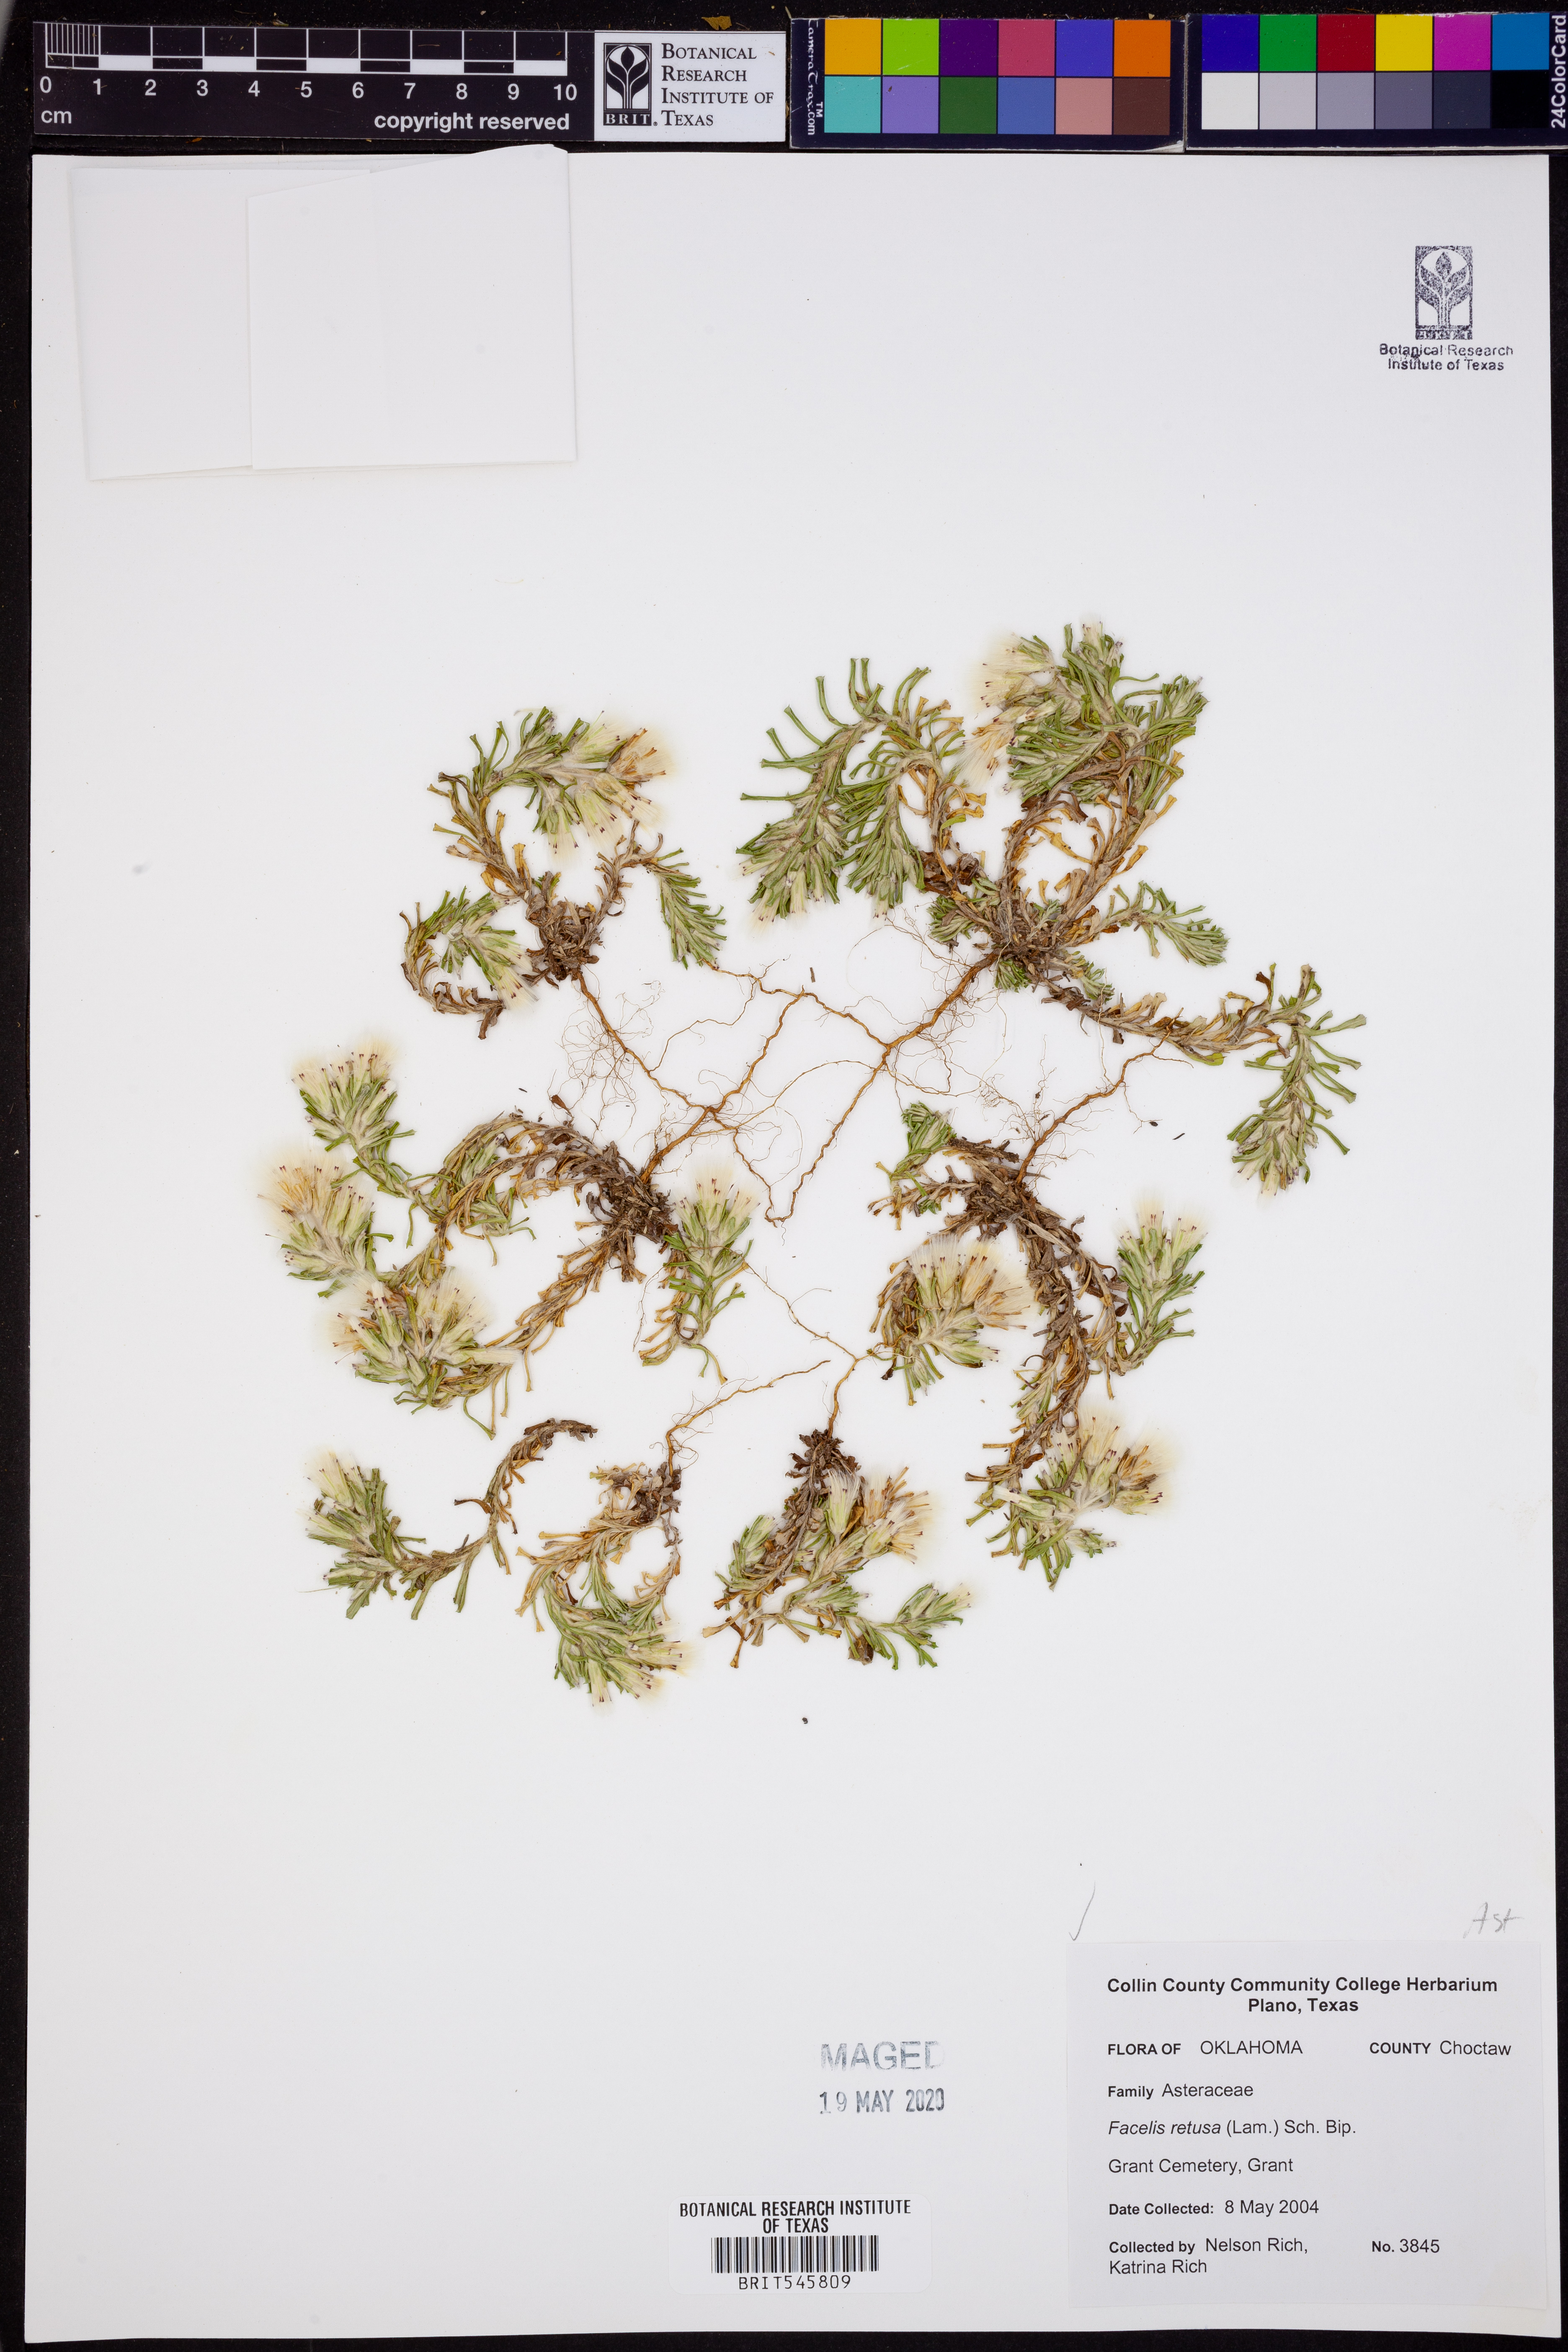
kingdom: Plantae
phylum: Tracheophyta
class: Magnoliopsida
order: Asterales
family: Asteraceae
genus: Facelis
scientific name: Facelis retusa
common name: Annual trampweed
